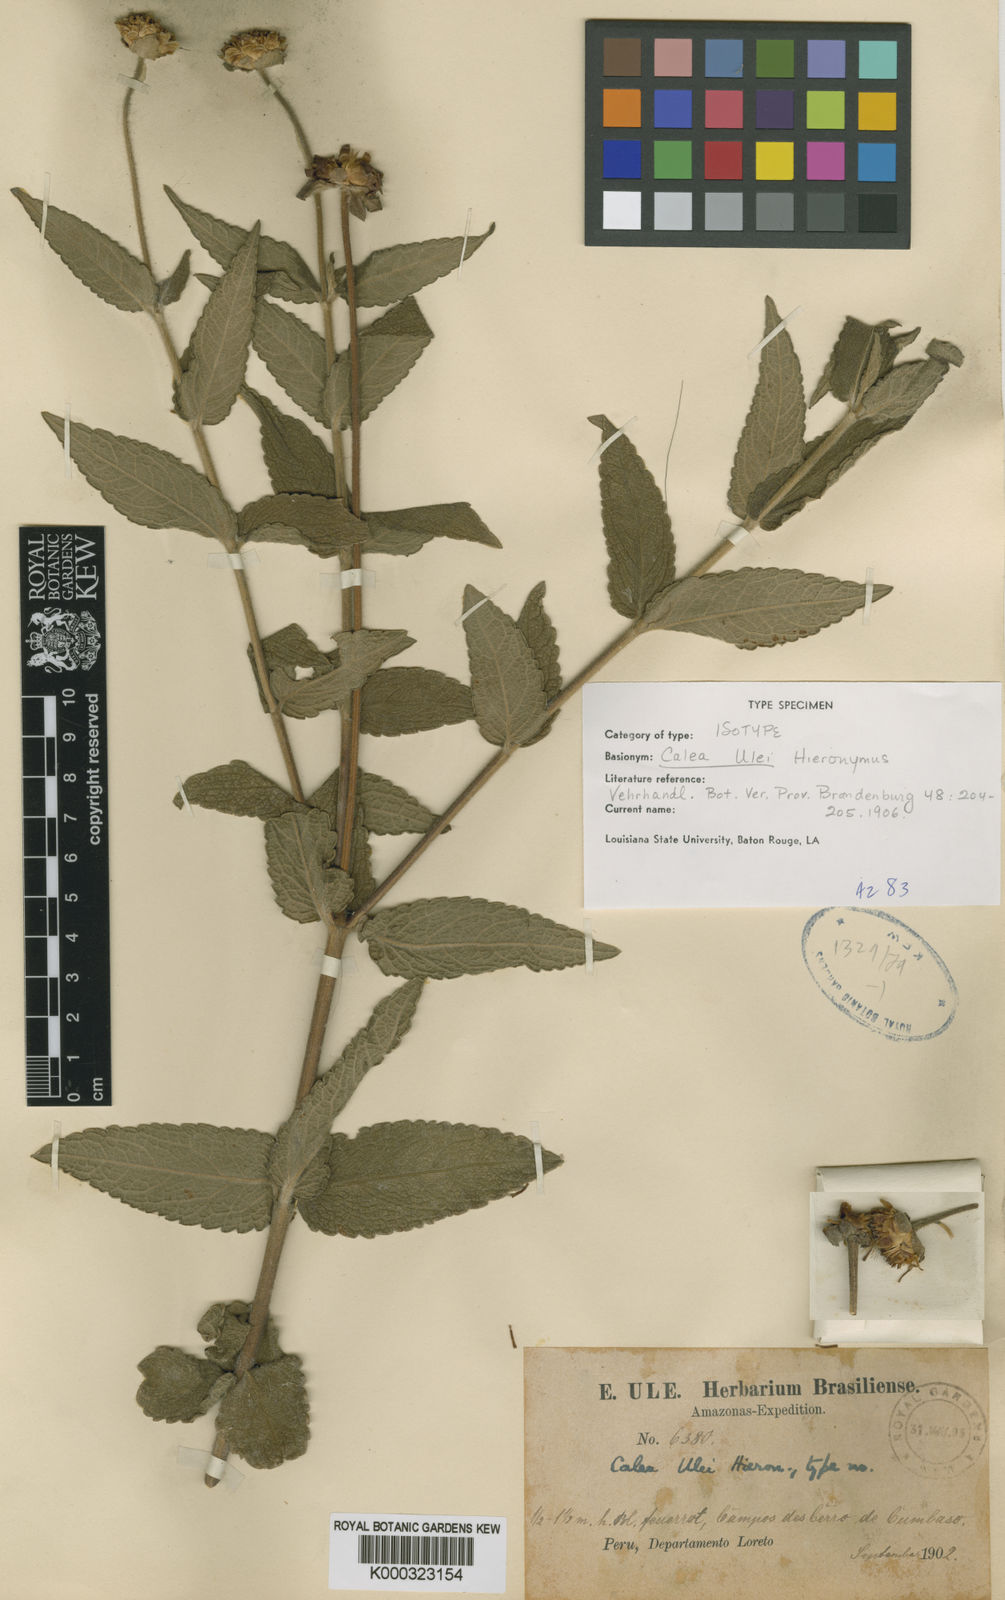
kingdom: Plantae
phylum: Tracheophyta
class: Magnoliopsida
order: Asterales
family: Asteraceae
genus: Calea
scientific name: Calea ulei
